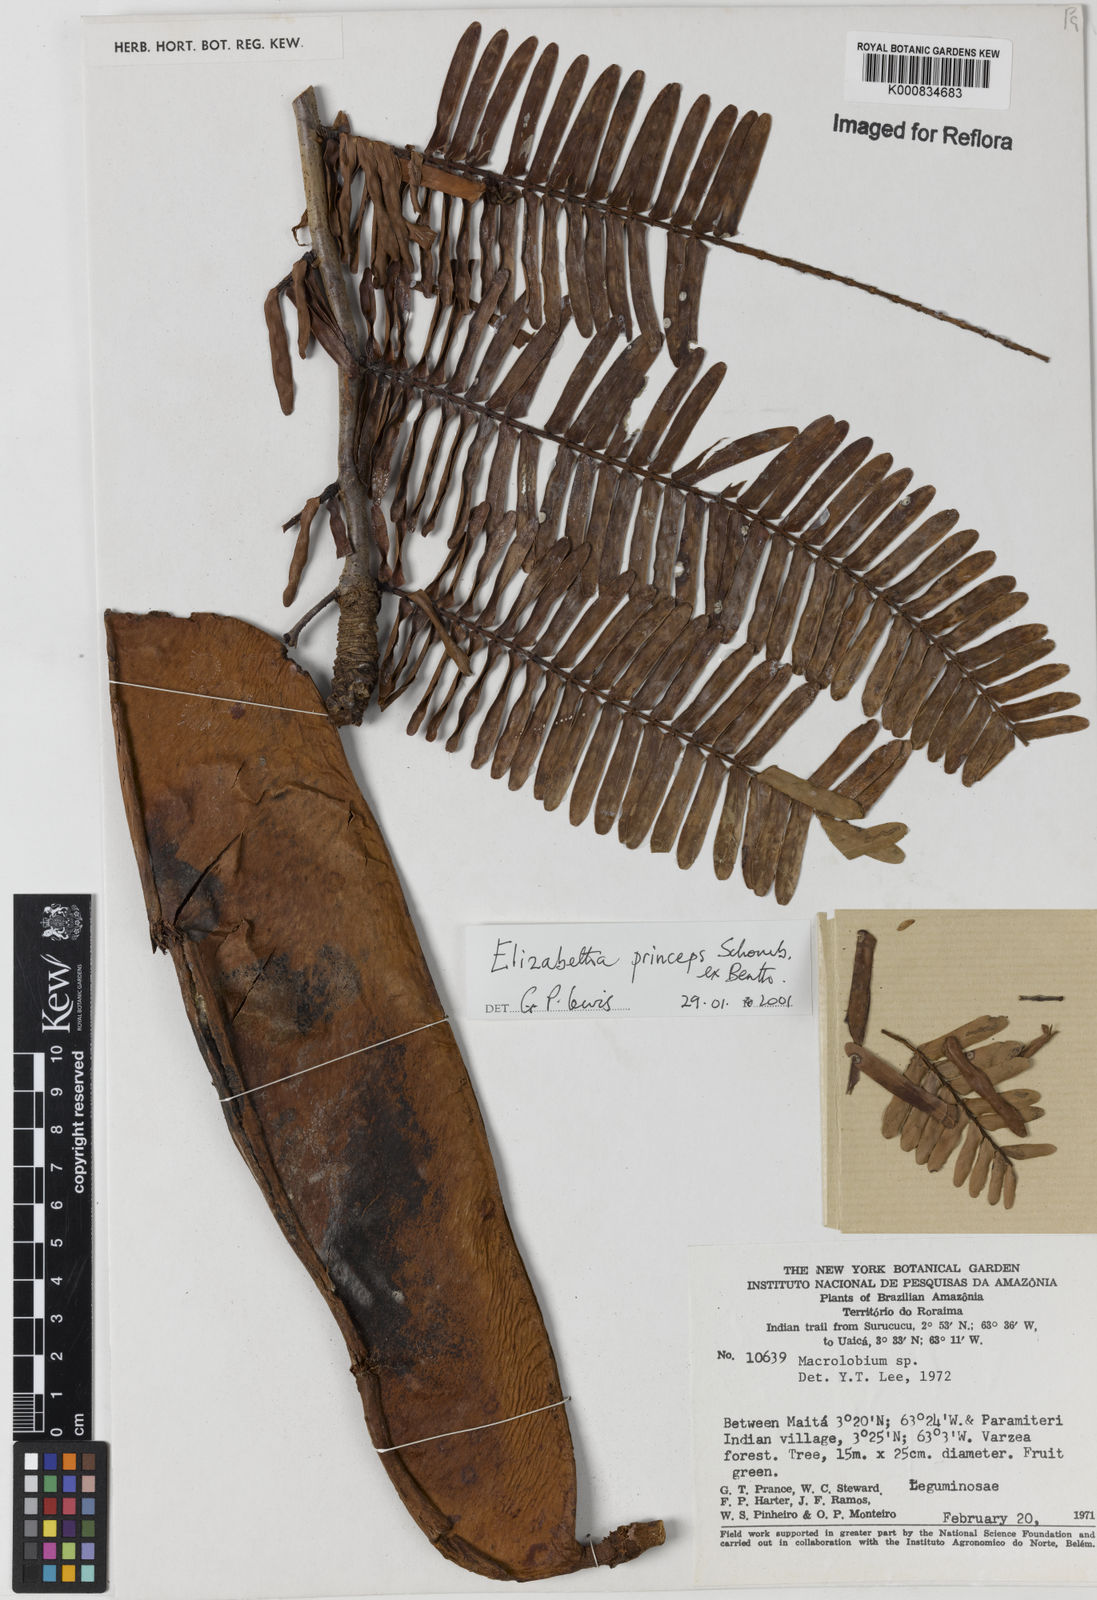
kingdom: Plantae
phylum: Tracheophyta
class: Magnoliopsida
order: Fabales
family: Fabaceae
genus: Paloue
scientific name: Paloue princeps
